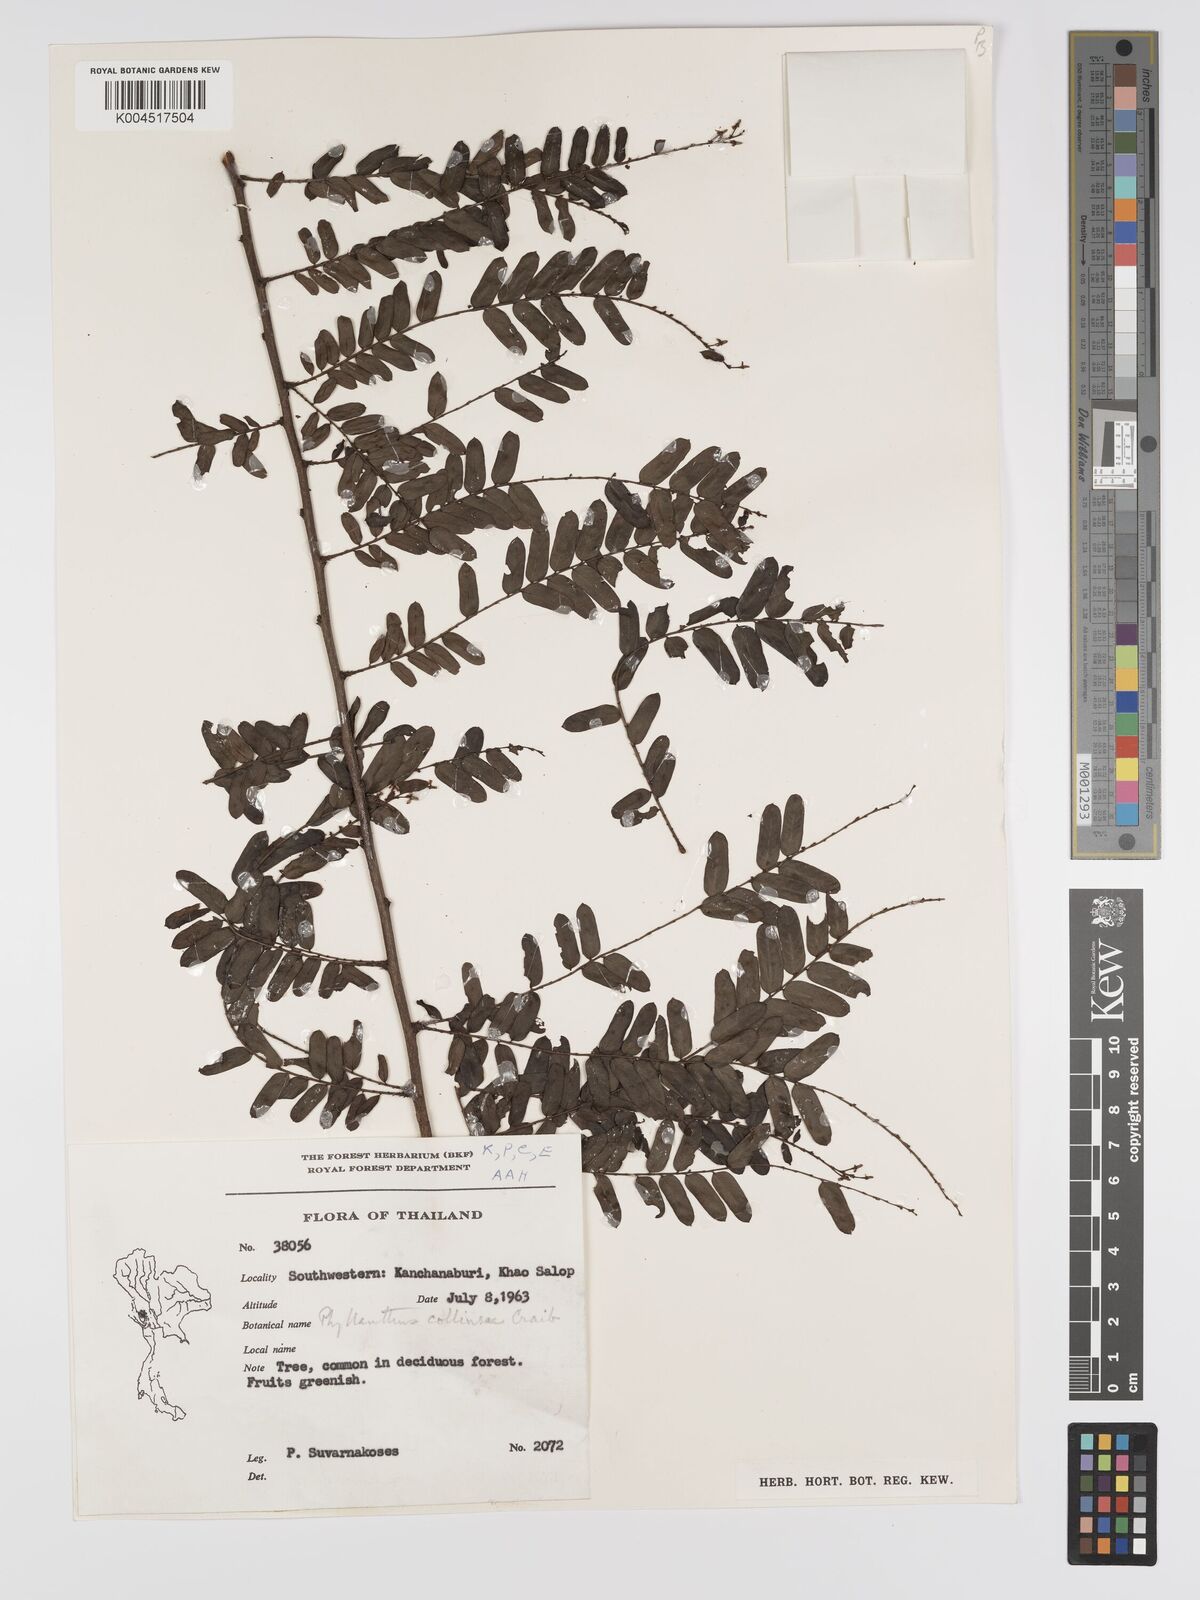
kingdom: Plantae
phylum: Tracheophyta
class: Magnoliopsida
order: Malpighiales
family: Phyllanthaceae
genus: Phyllanthus
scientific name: Phyllanthus collinsiae
